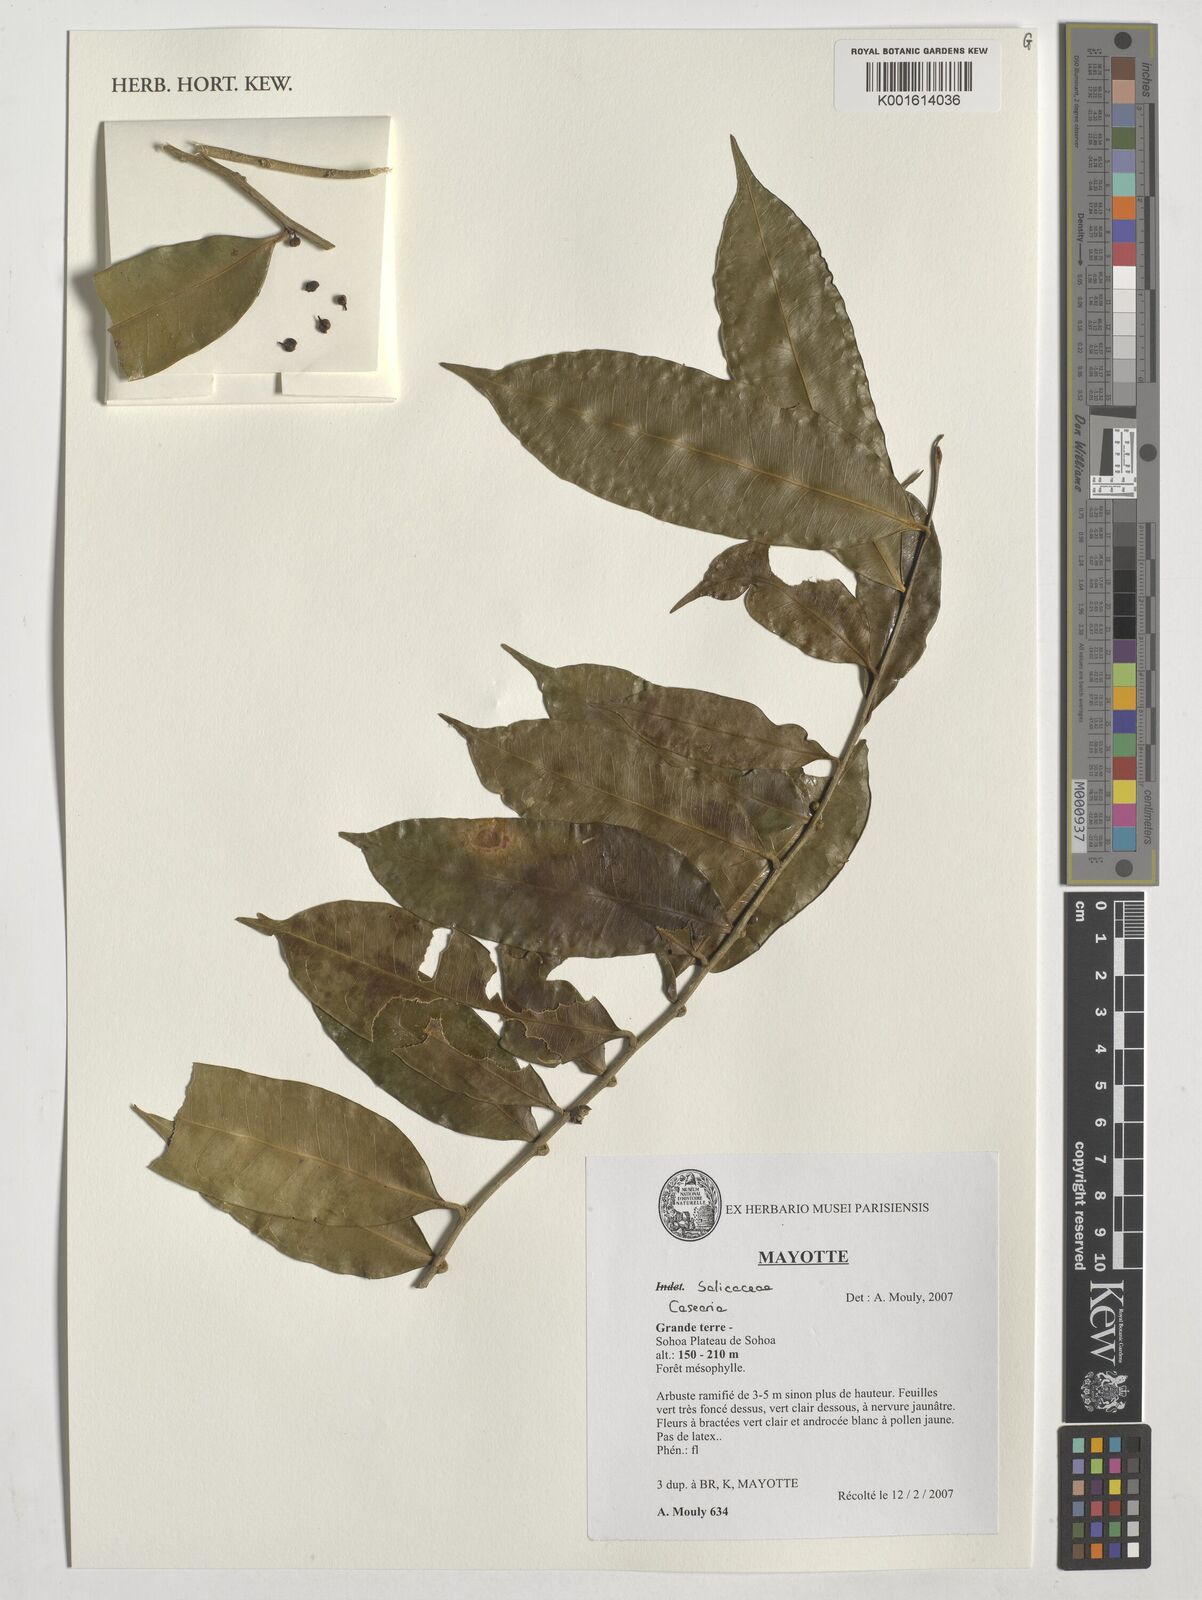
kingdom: Plantae
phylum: Tracheophyta
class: Magnoliopsida
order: Malpighiales
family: Salicaceae
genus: Casearia
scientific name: Casearia
